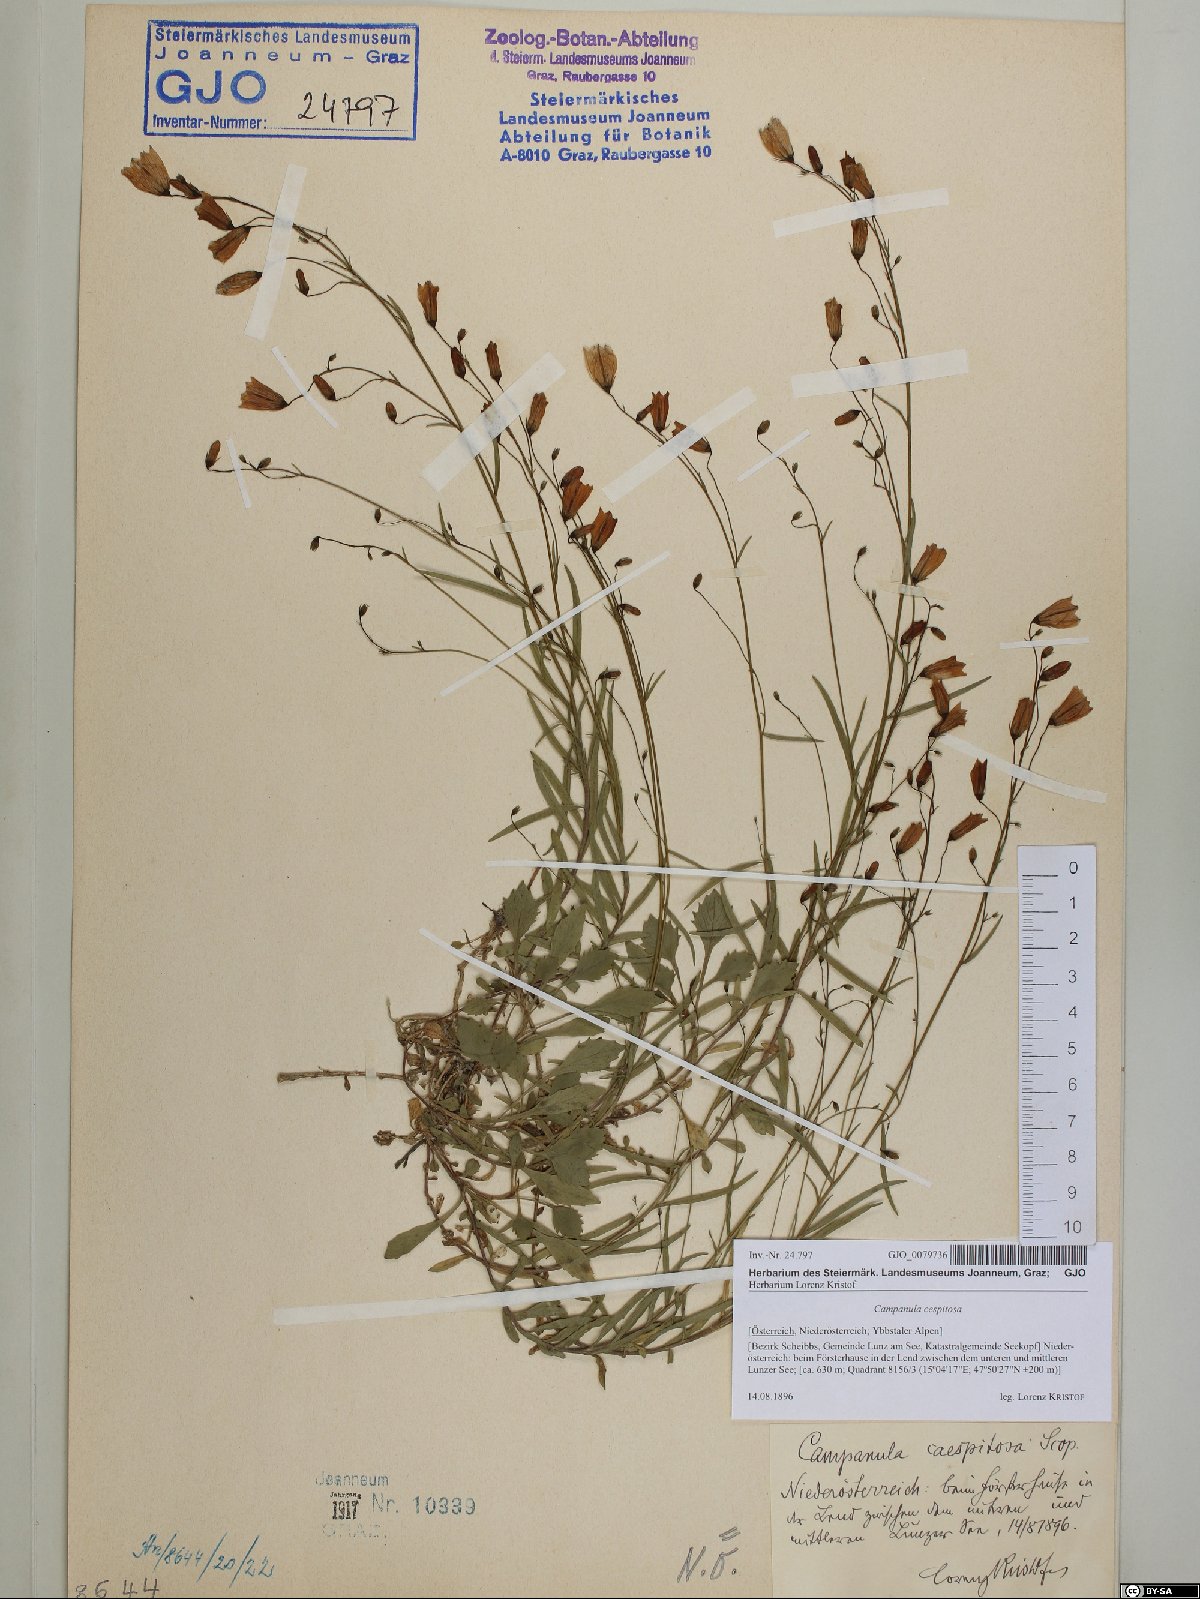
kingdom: Plantae
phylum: Tracheophyta
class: Magnoliopsida
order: Asterales
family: Campanulaceae
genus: Campanula
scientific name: Campanula cespitosa
